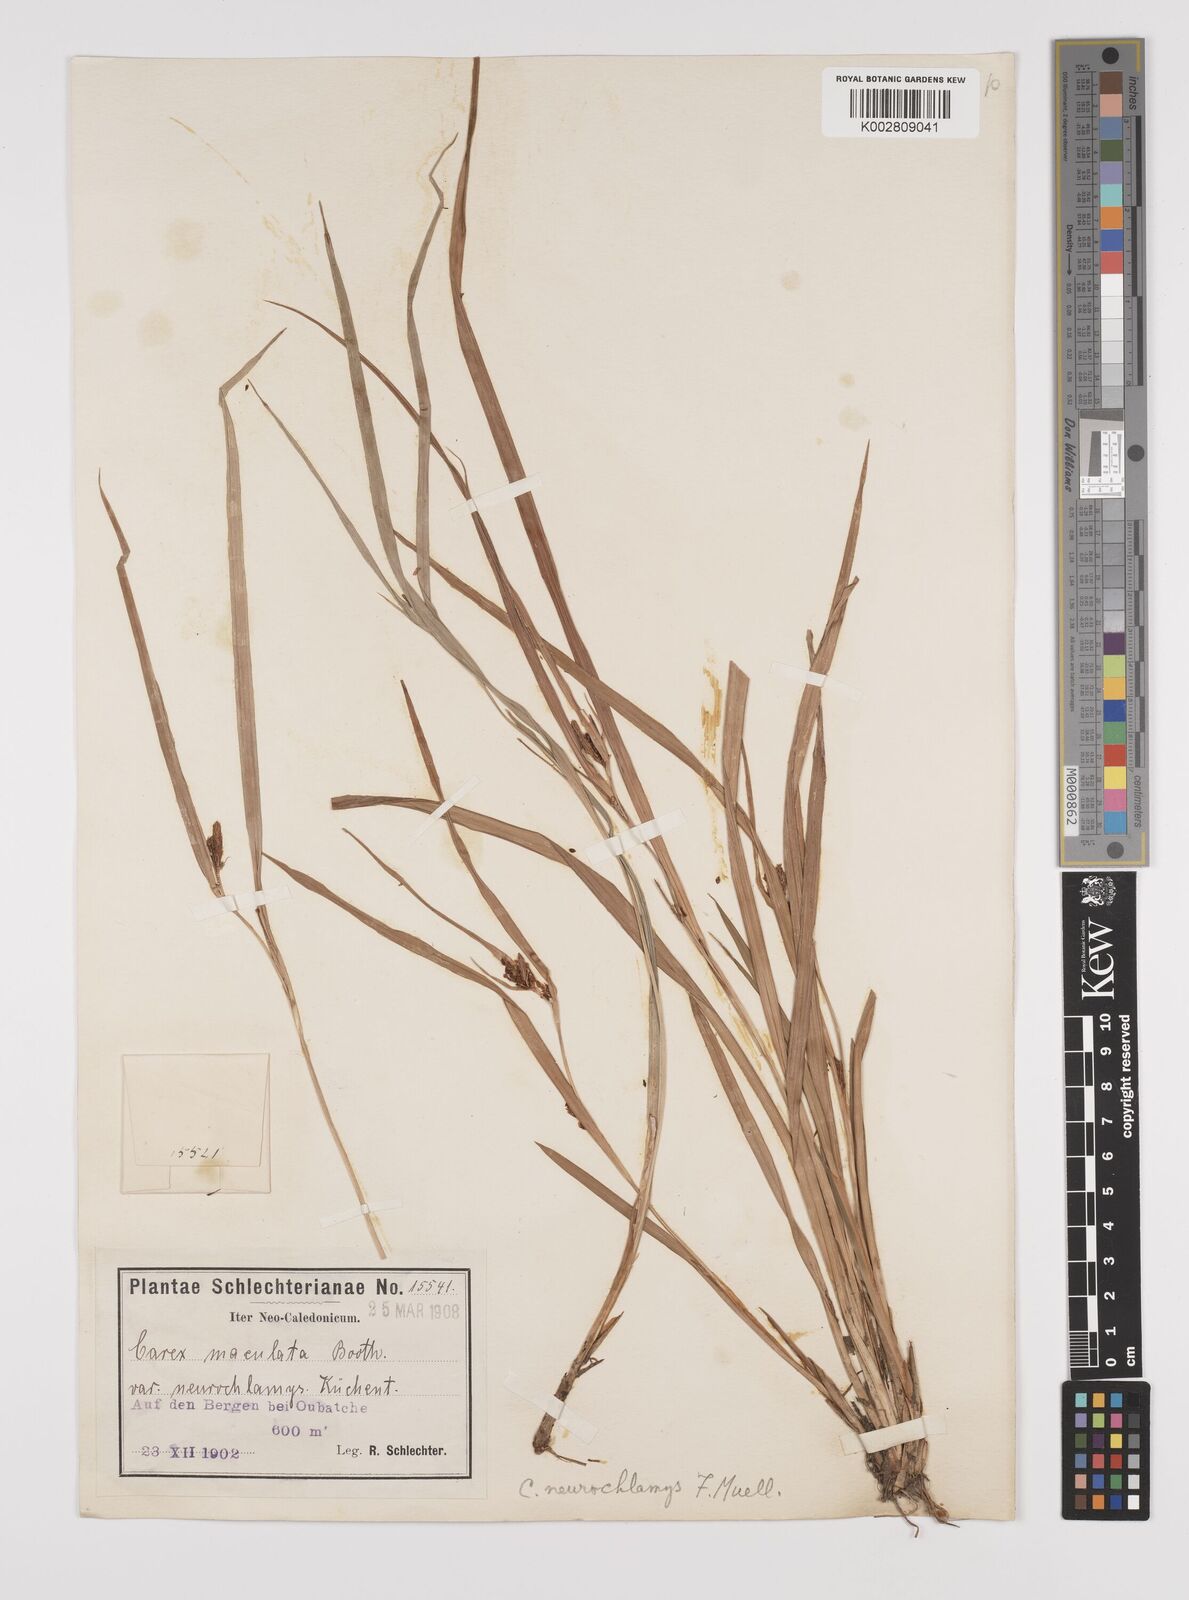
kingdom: Plantae
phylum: Tracheophyta
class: Liliopsida
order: Poales
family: Cyperaceae
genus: Carex
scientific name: Carex maculata
